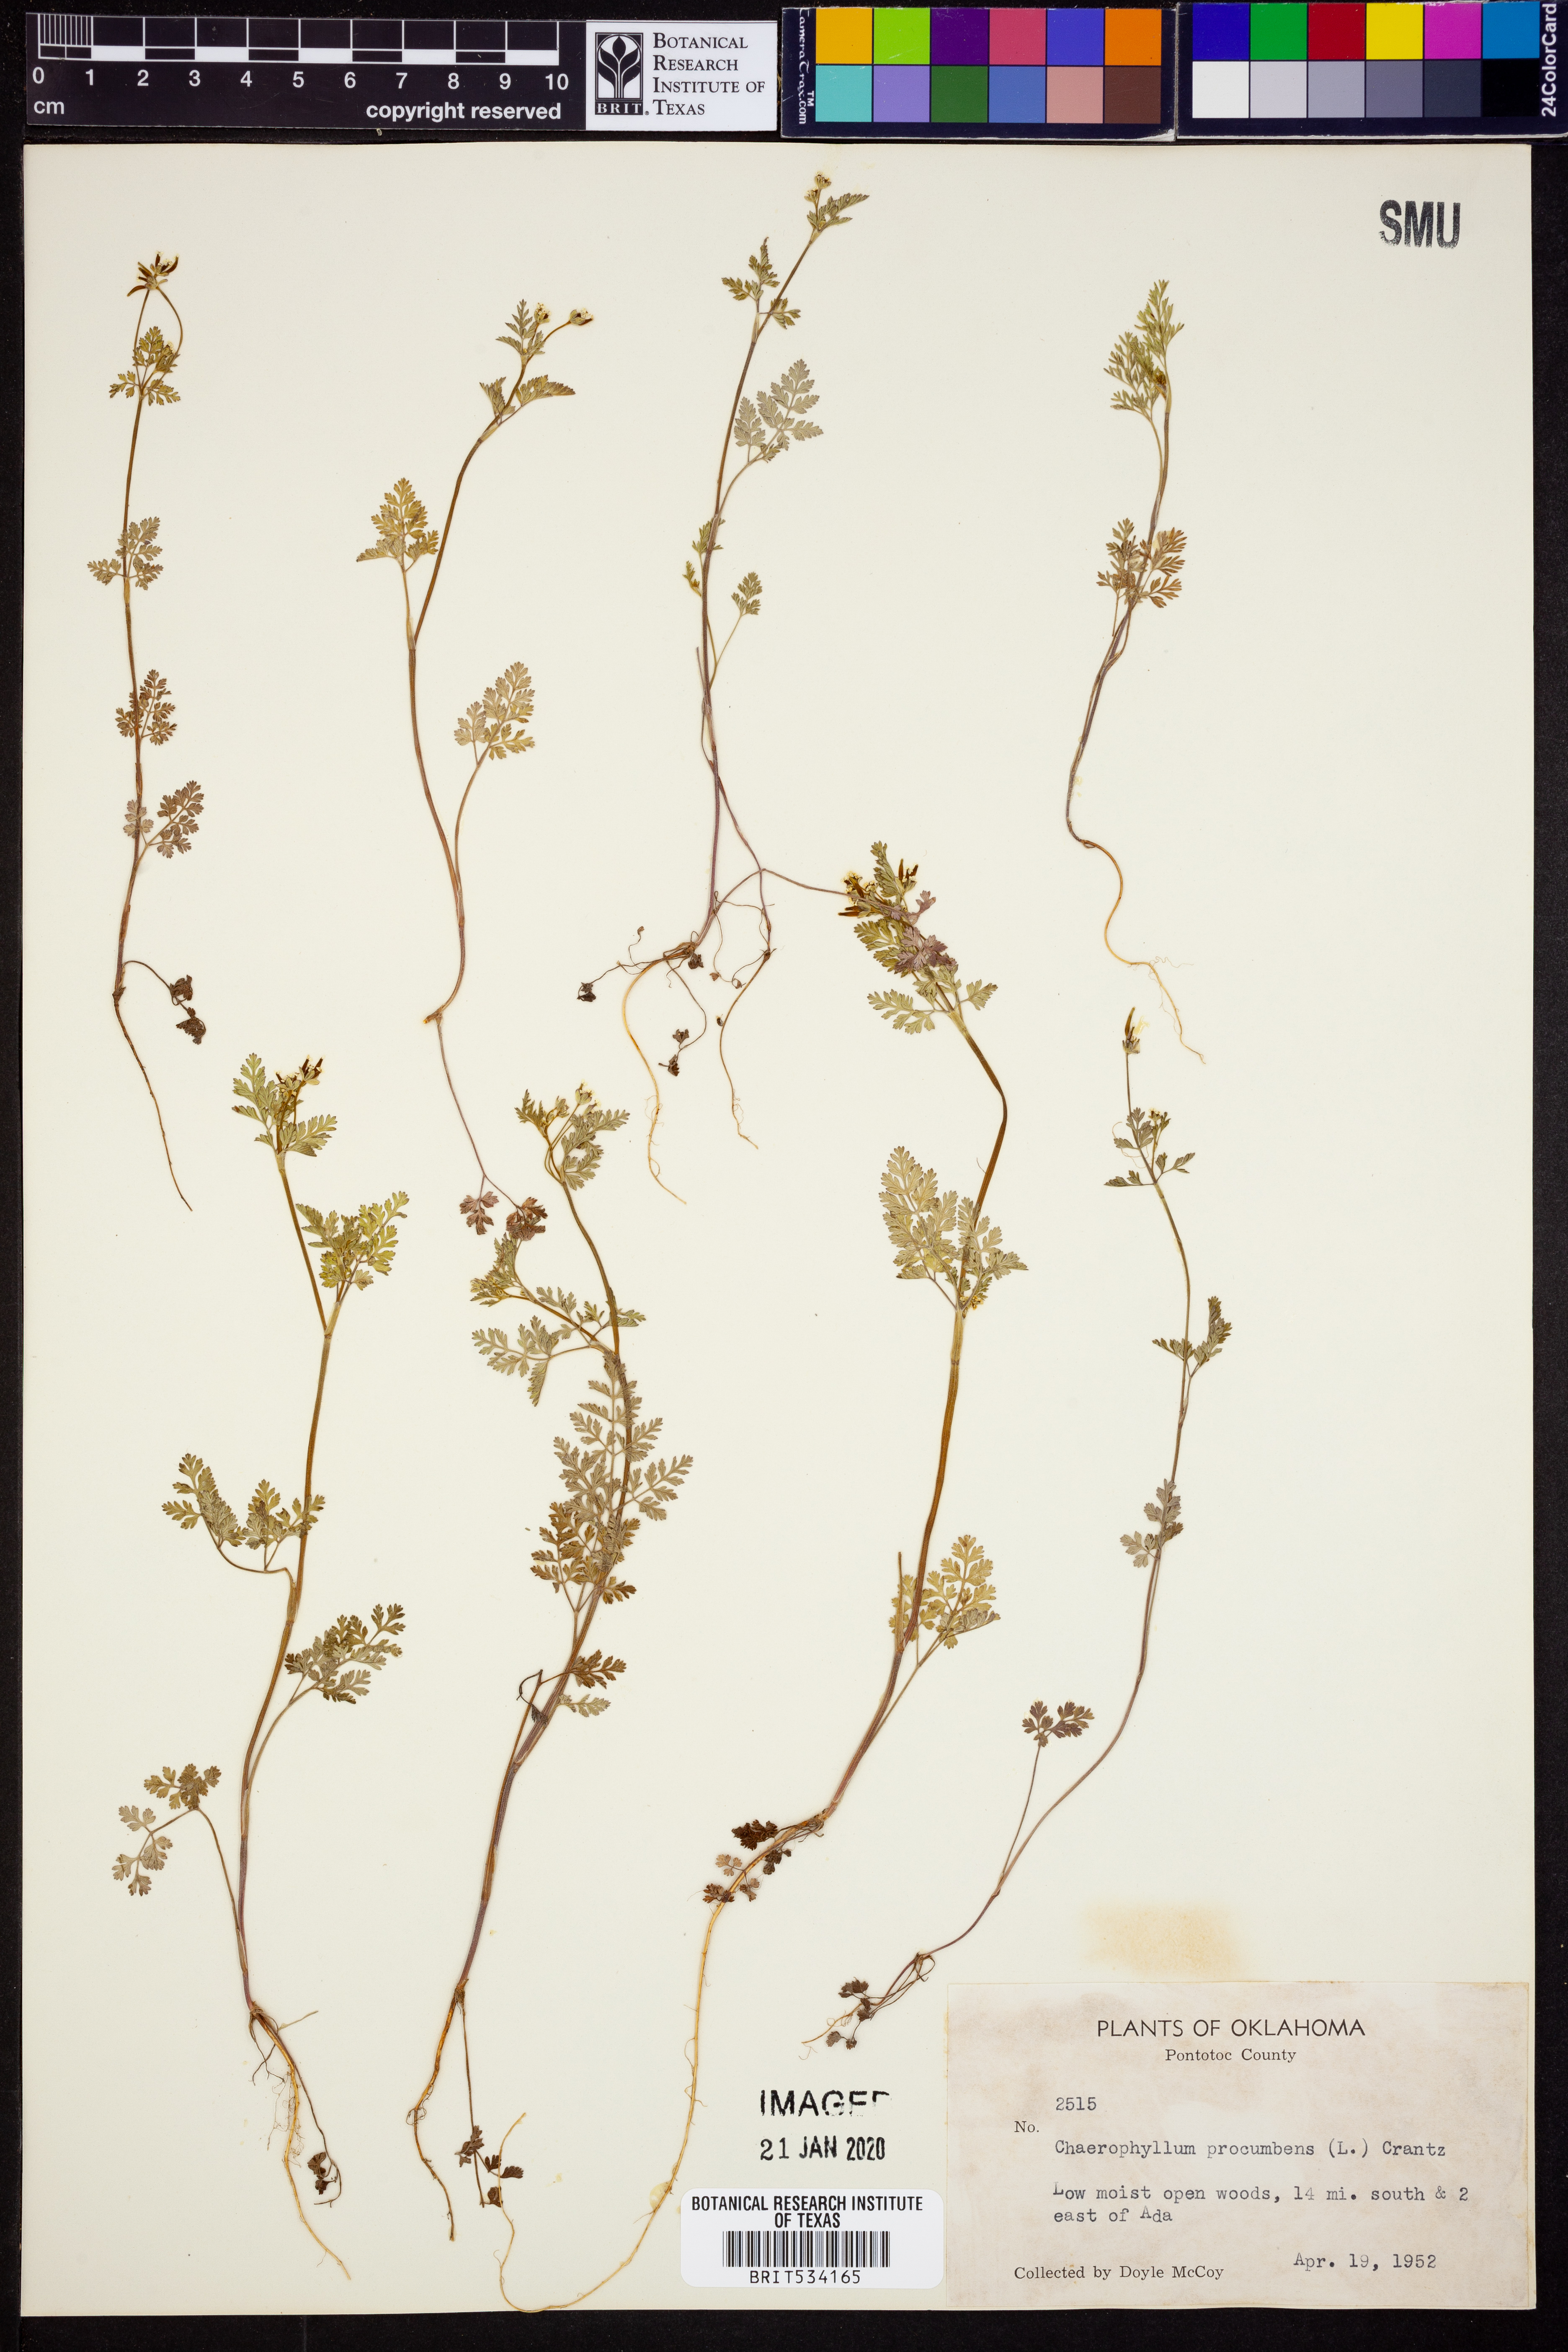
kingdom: Plantae
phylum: Tracheophyta
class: Magnoliopsida
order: Apiales
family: Apiaceae
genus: Chaerophyllum
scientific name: Chaerophyllum procumbens
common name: Spreading chervil
